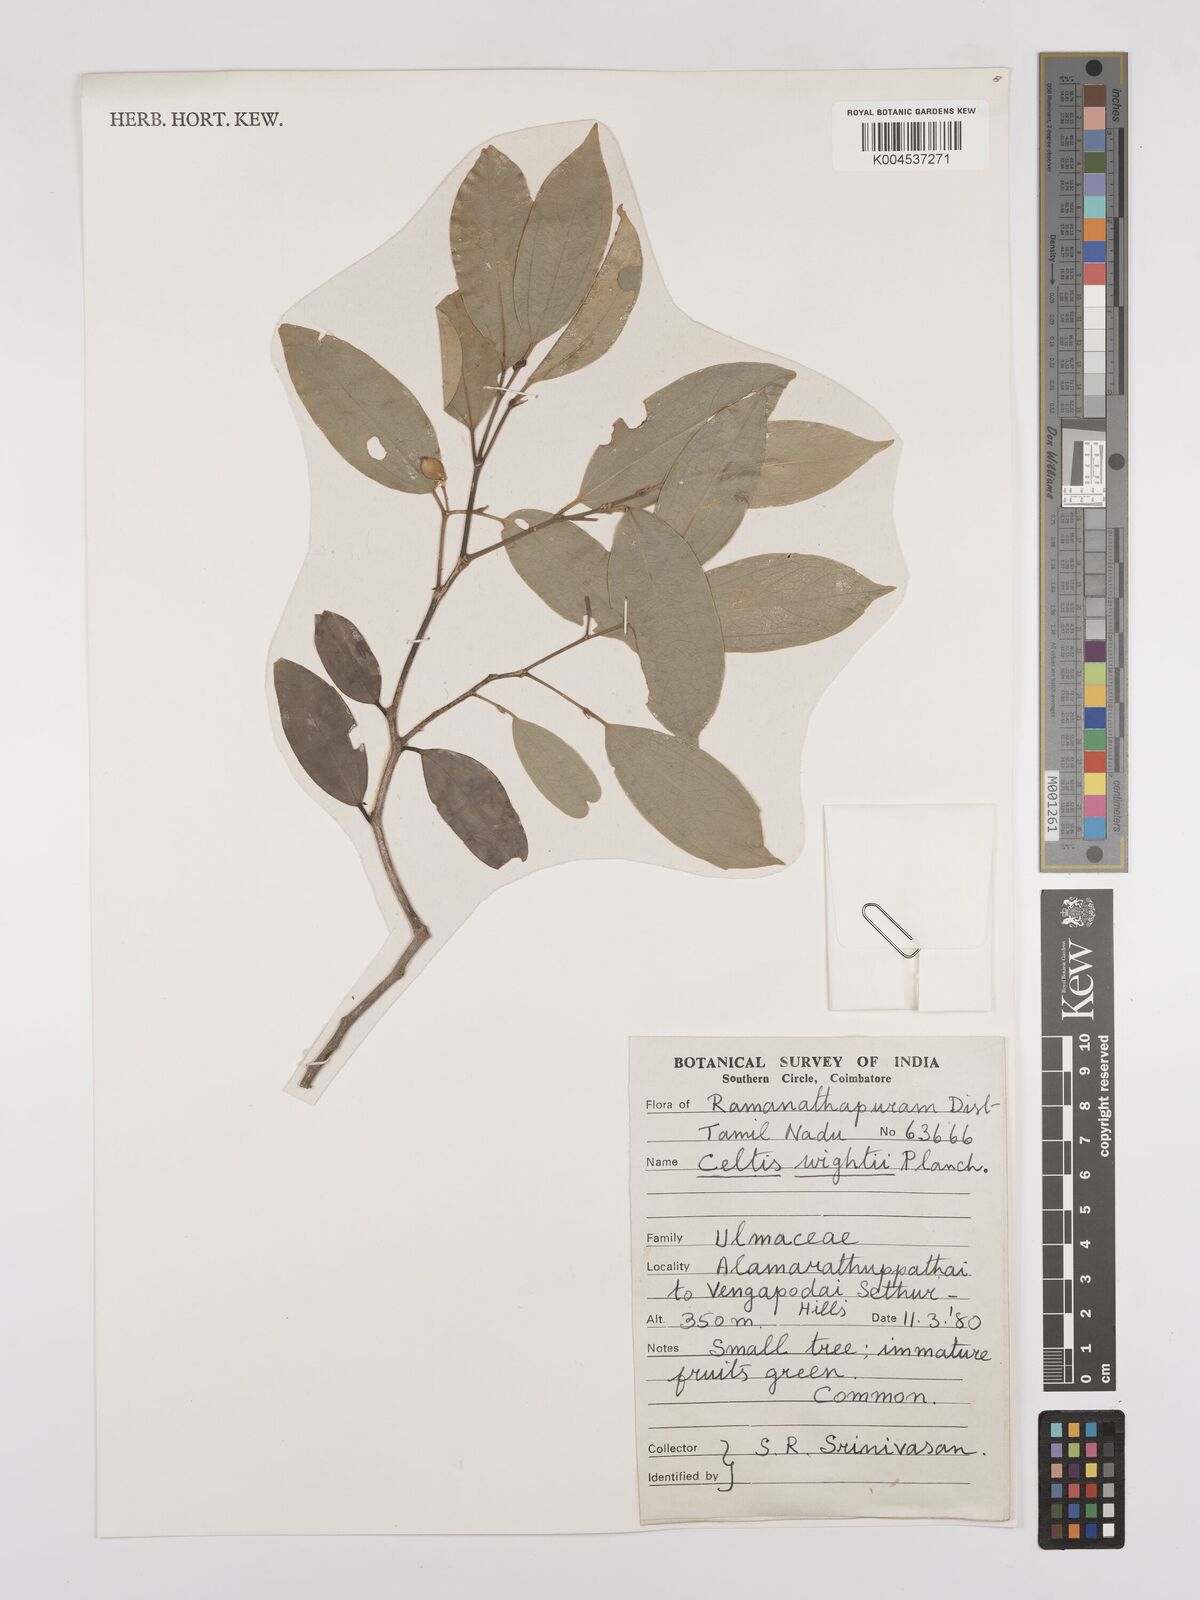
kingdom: Plantae
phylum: Tracheophyta
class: Magnoliopsida
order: Rosales
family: Cannabaceae
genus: Celtis
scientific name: Celtis philippensis
